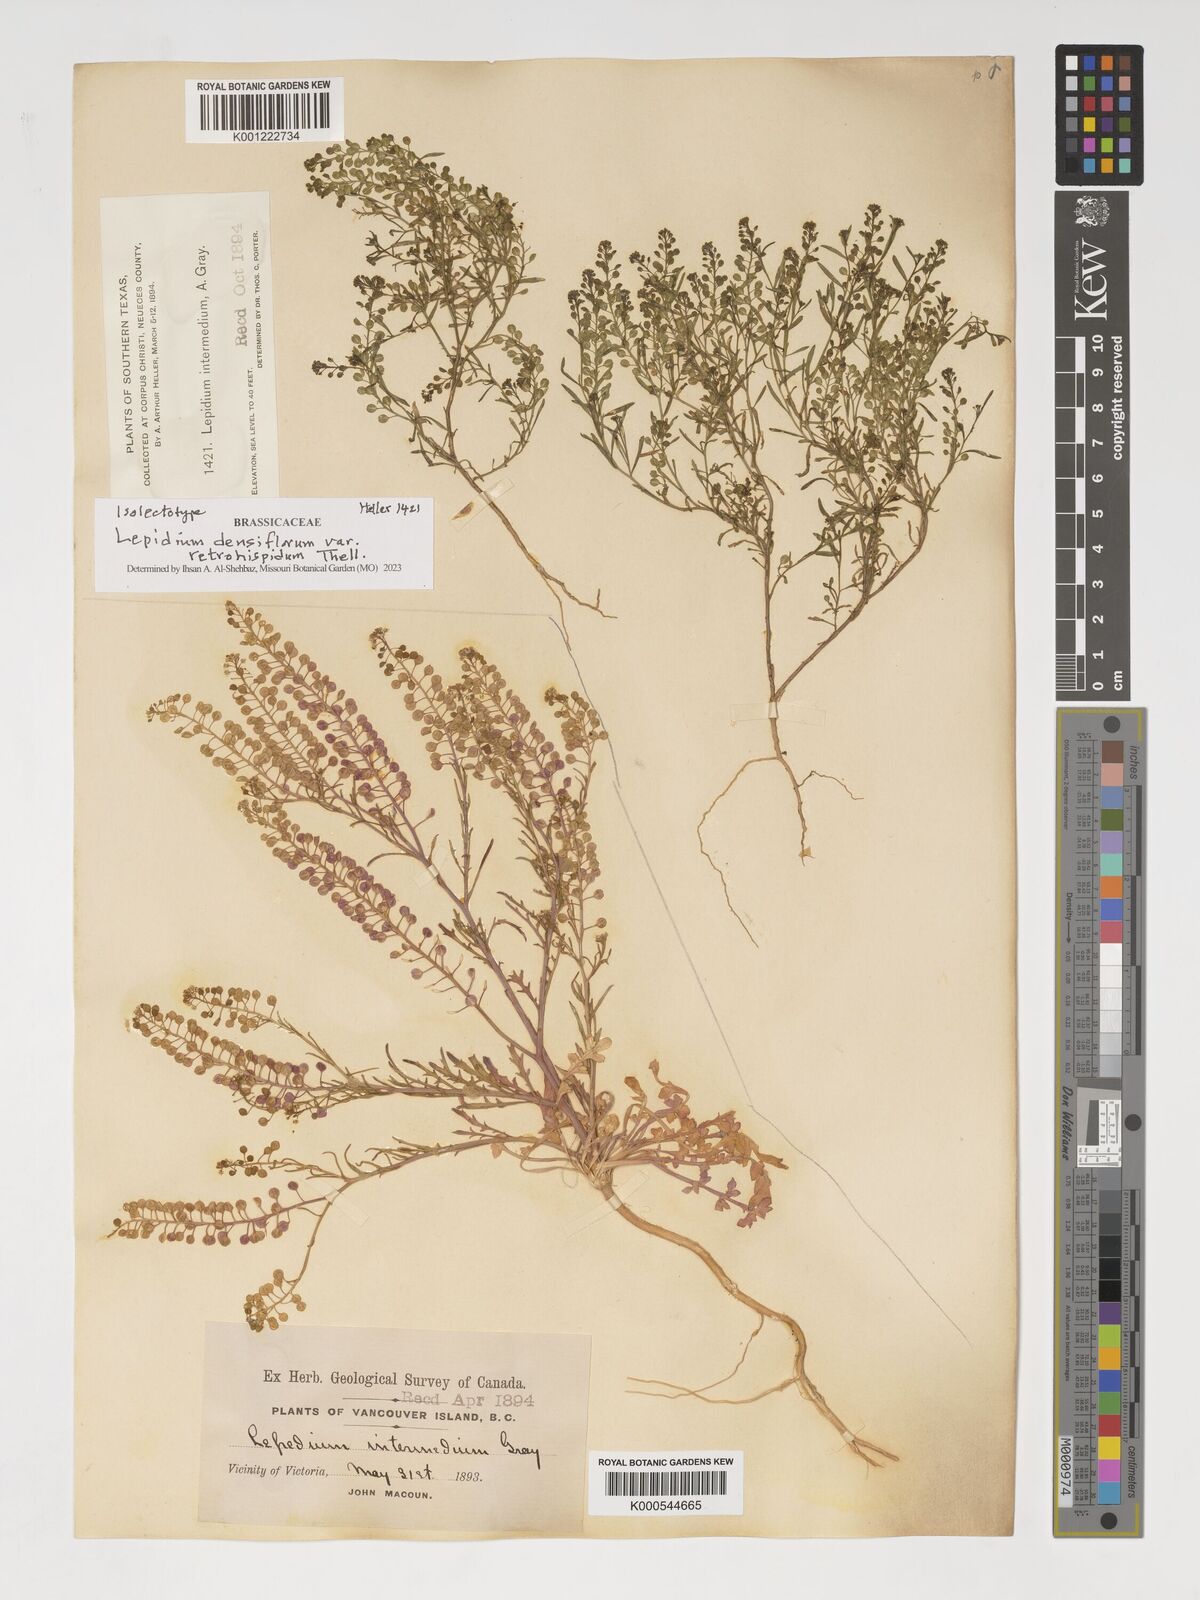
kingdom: Plantae
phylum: Tracheophyta
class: Magnoliopsida
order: Brassicales
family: Brassicaceae
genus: Lepidium
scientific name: Lepidium densiflorum
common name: Miner's pepperwort
